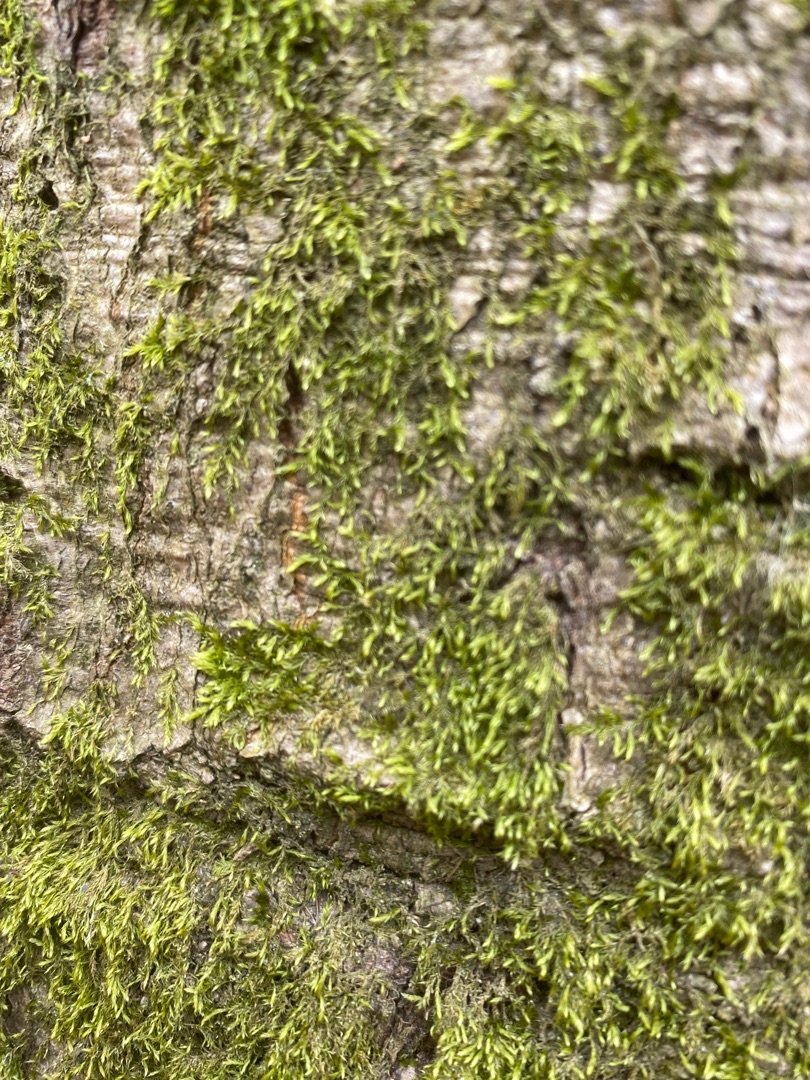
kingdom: Plantae
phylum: Bryophyta
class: Bryopsida
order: Hypnales
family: Hypnaceae
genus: Hypnum
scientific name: Hypnum
